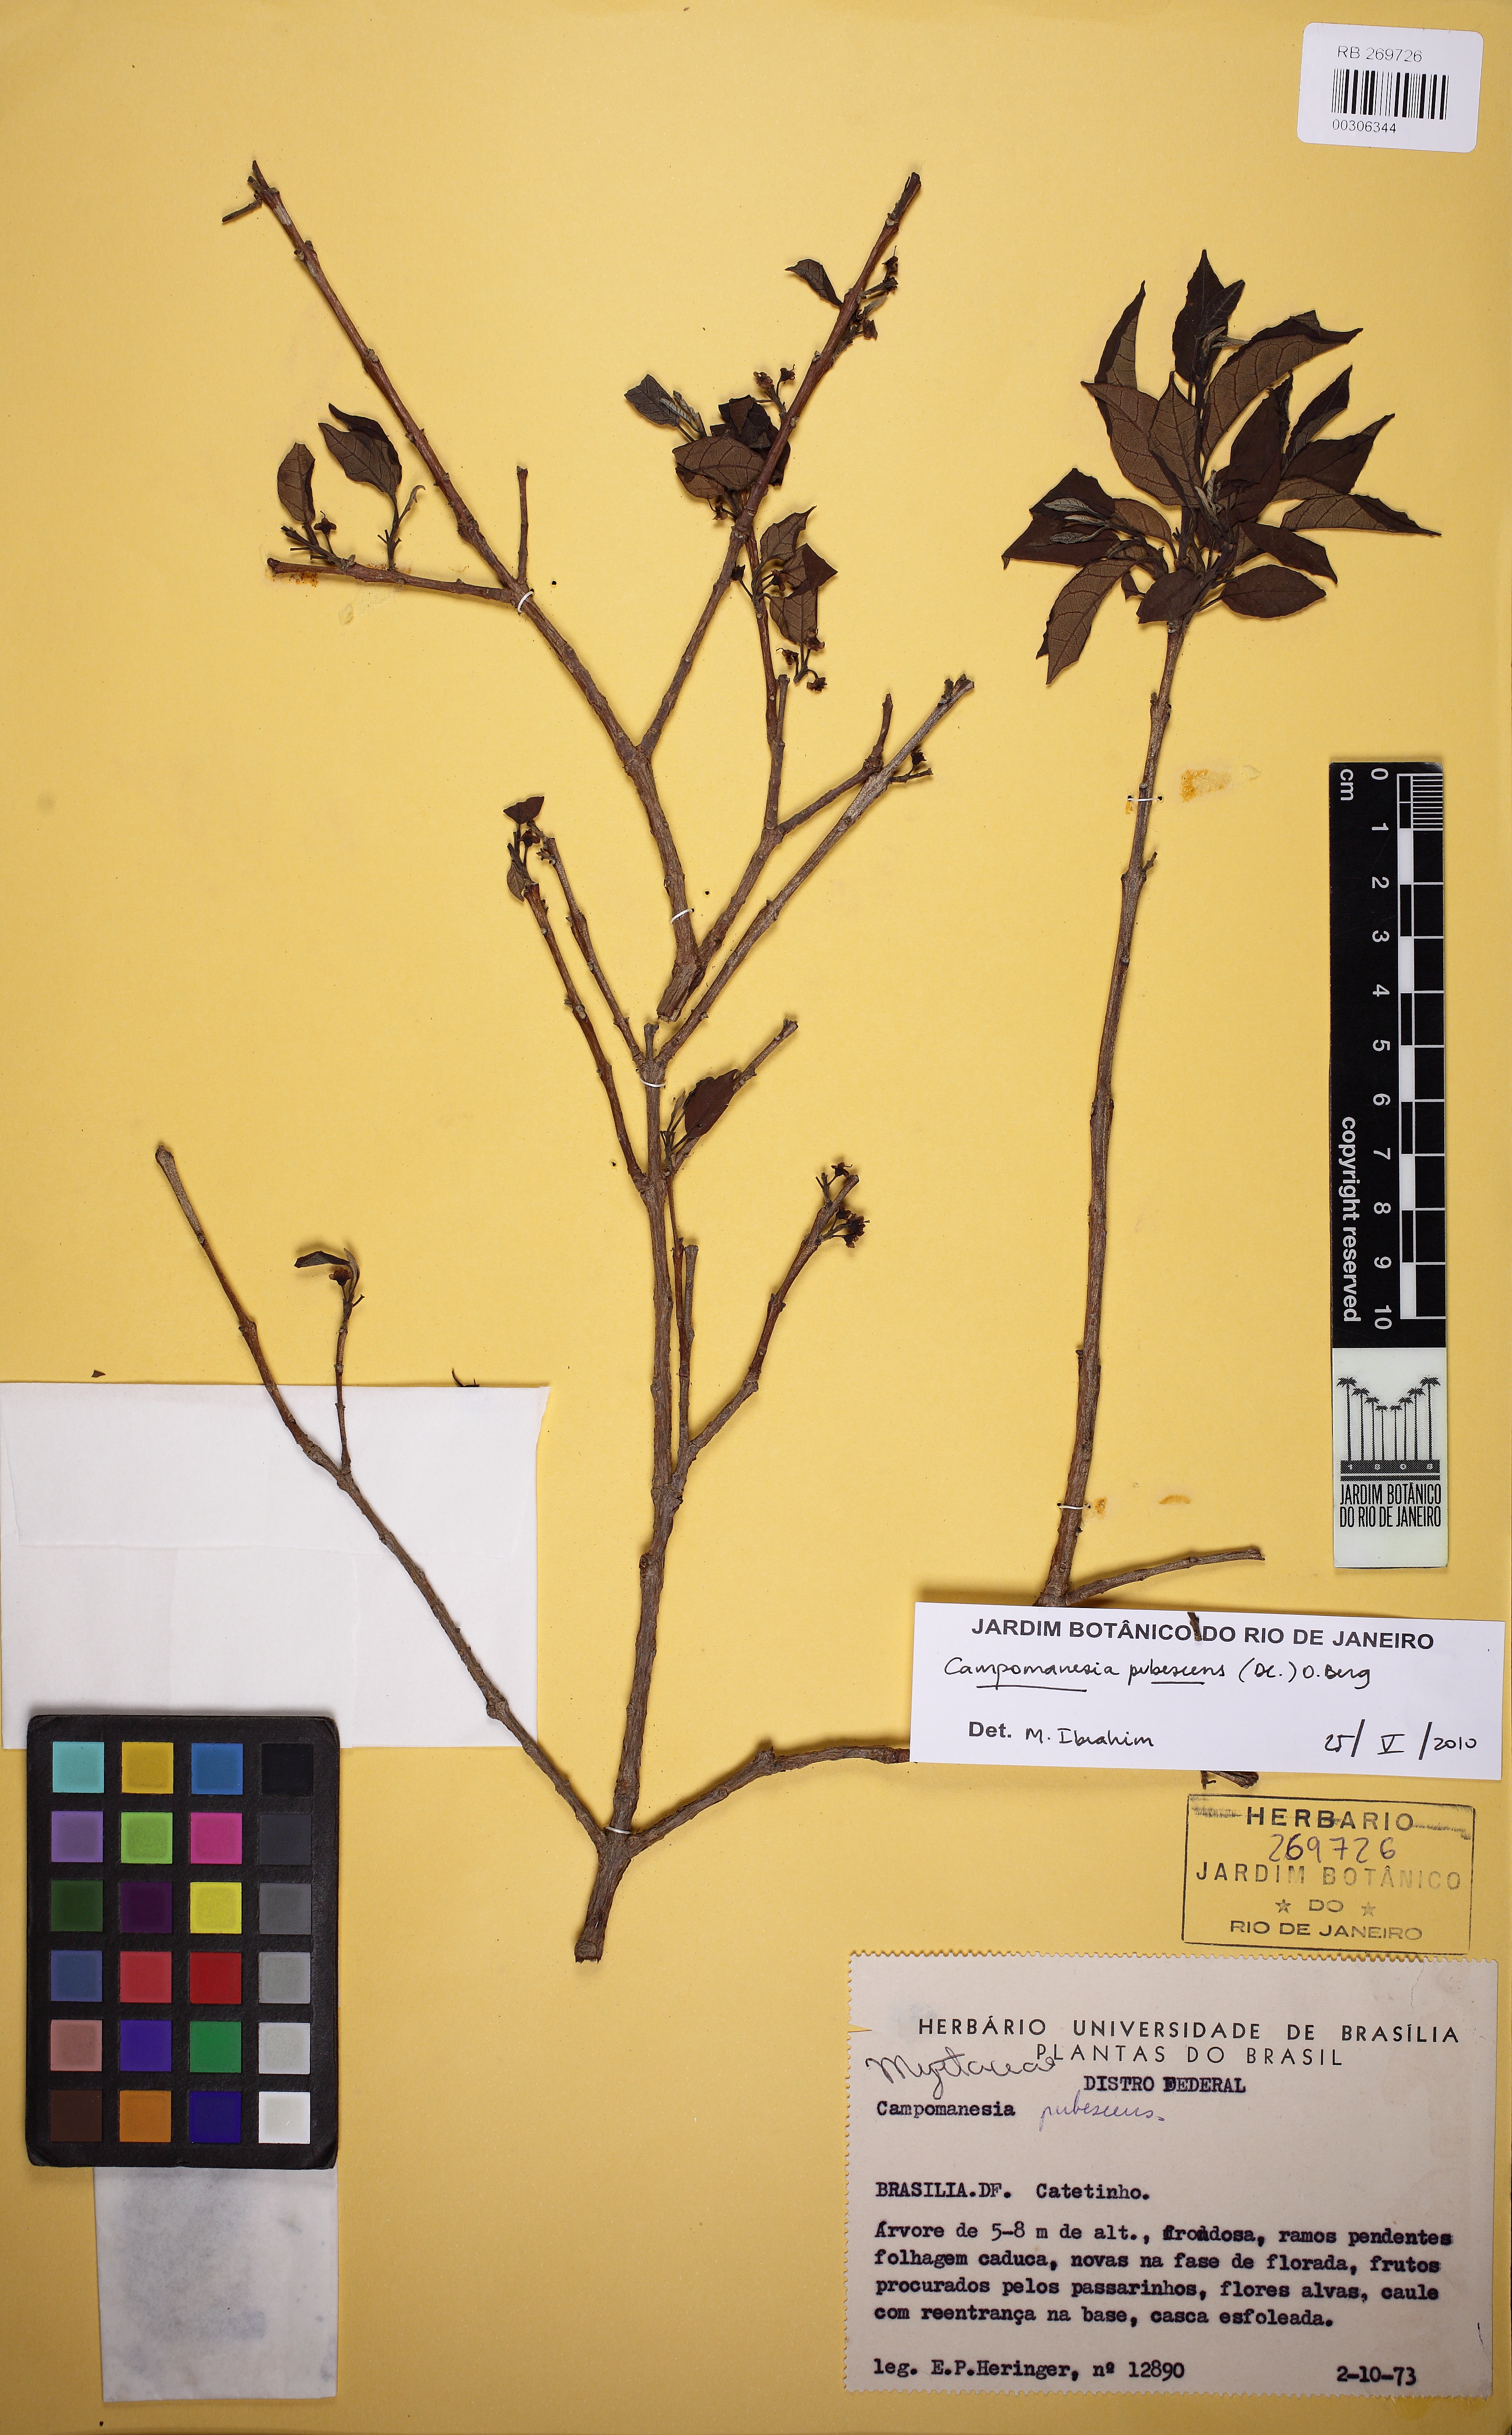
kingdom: Plantae
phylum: Tracheophyta
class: Magnoliopsida
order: Myrtales
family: Myrtaceae
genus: Campomanesia
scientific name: Campomanesia pubescens
